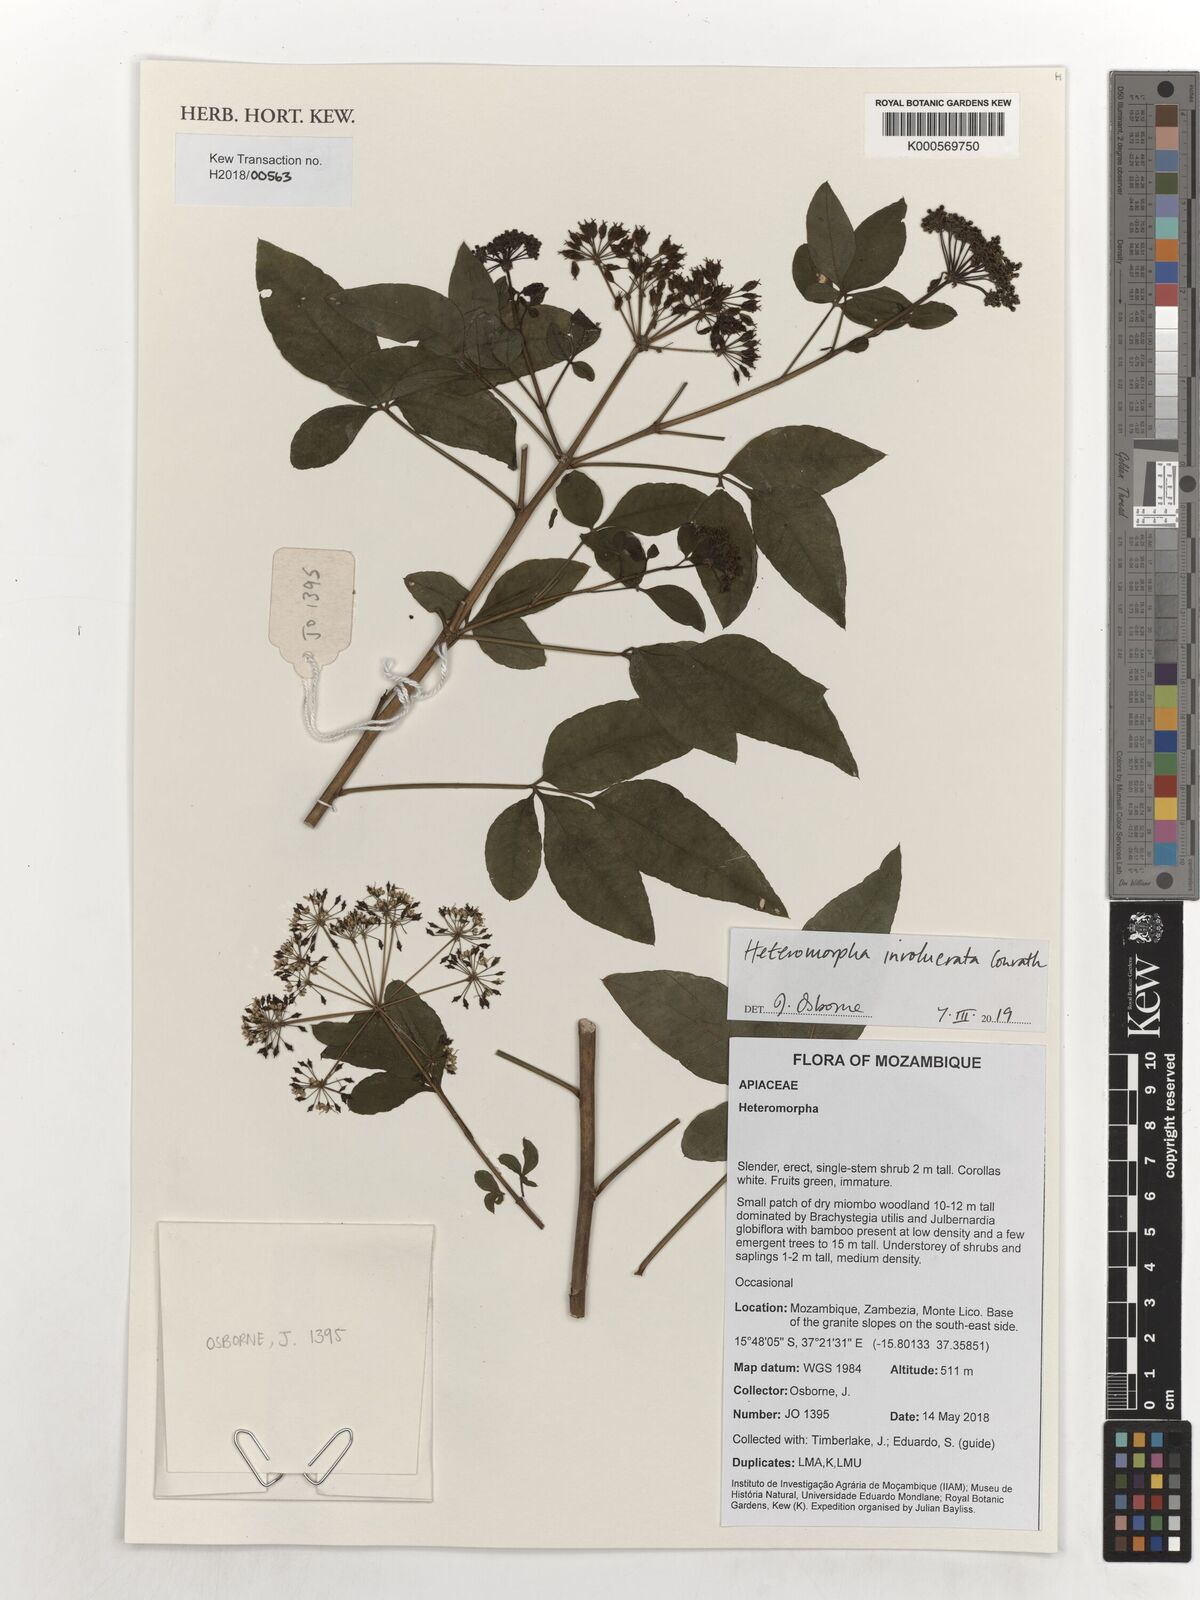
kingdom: Plantae
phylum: Tracheophyta
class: Magnoliopsida
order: Apiales
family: Apiaceae
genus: Heteromorpha
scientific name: Heteromorpha involucrata
